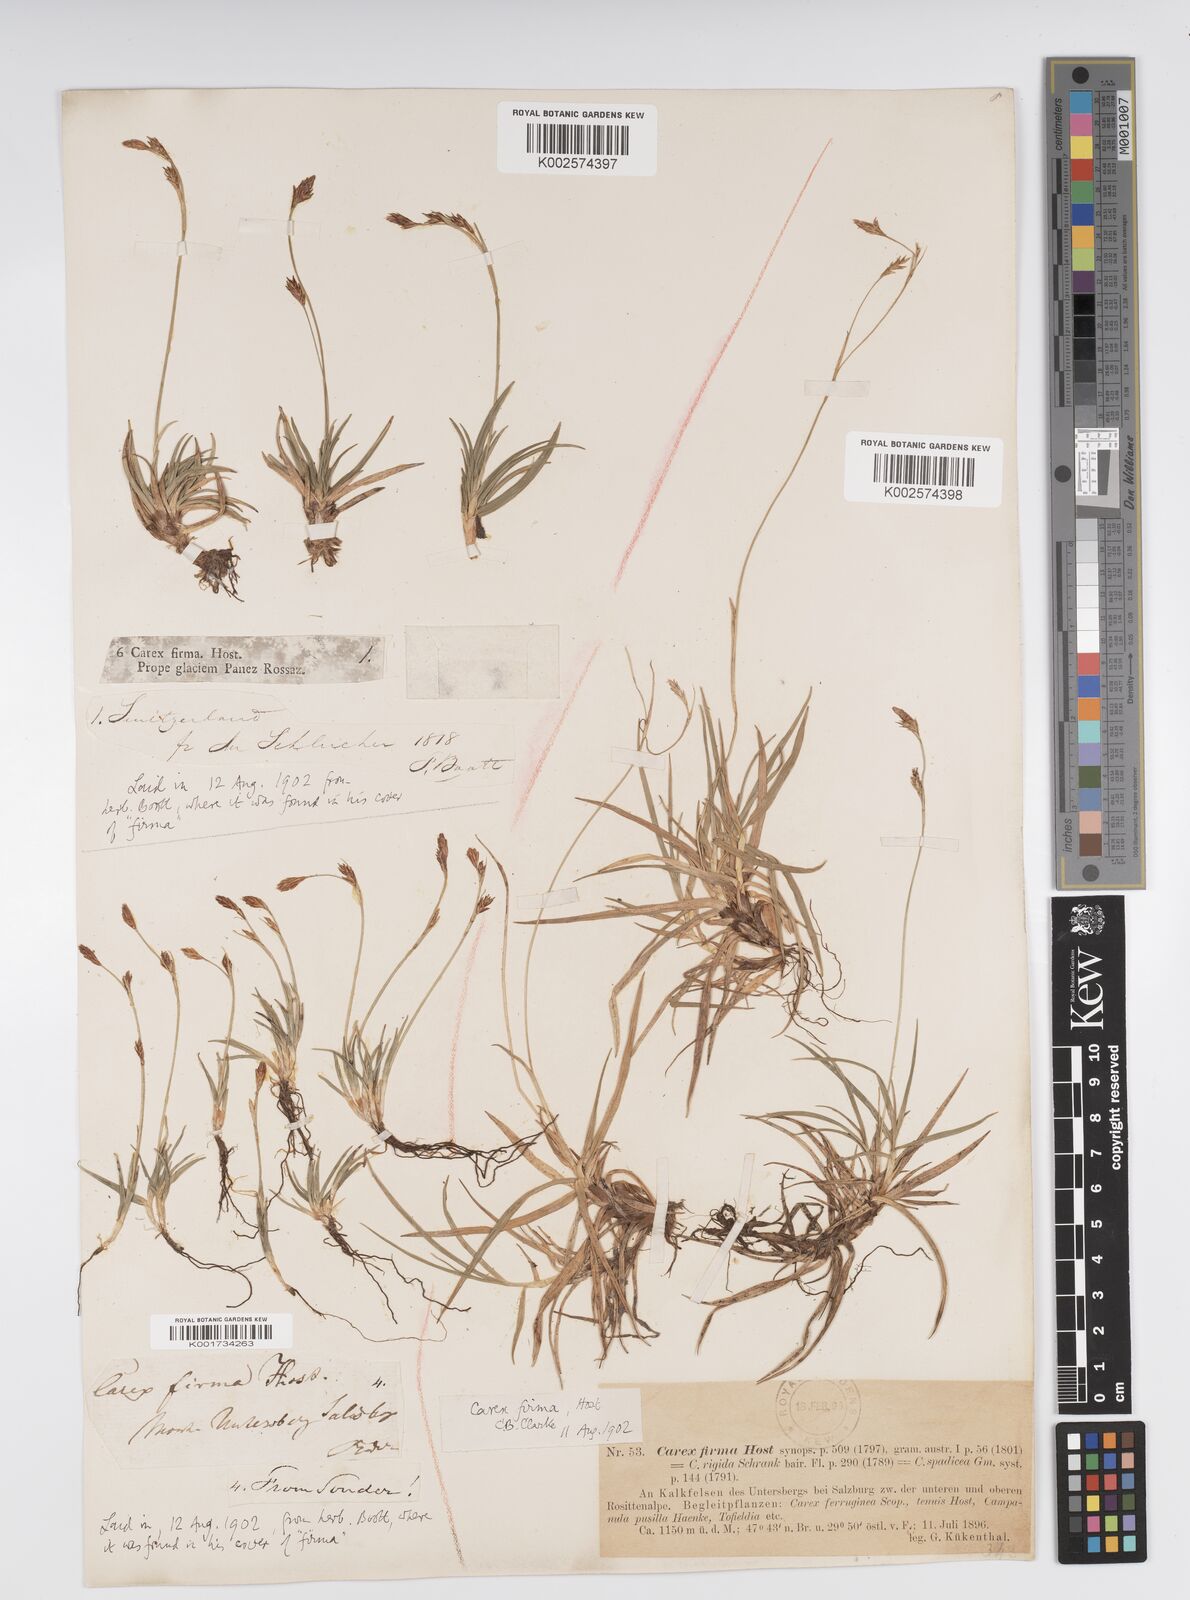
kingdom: Plantae
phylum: Tracheophyta
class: Liliopsida
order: Poales
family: Cyperaceae
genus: Carex
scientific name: Carex firma
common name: Dwarf pillow sedge
